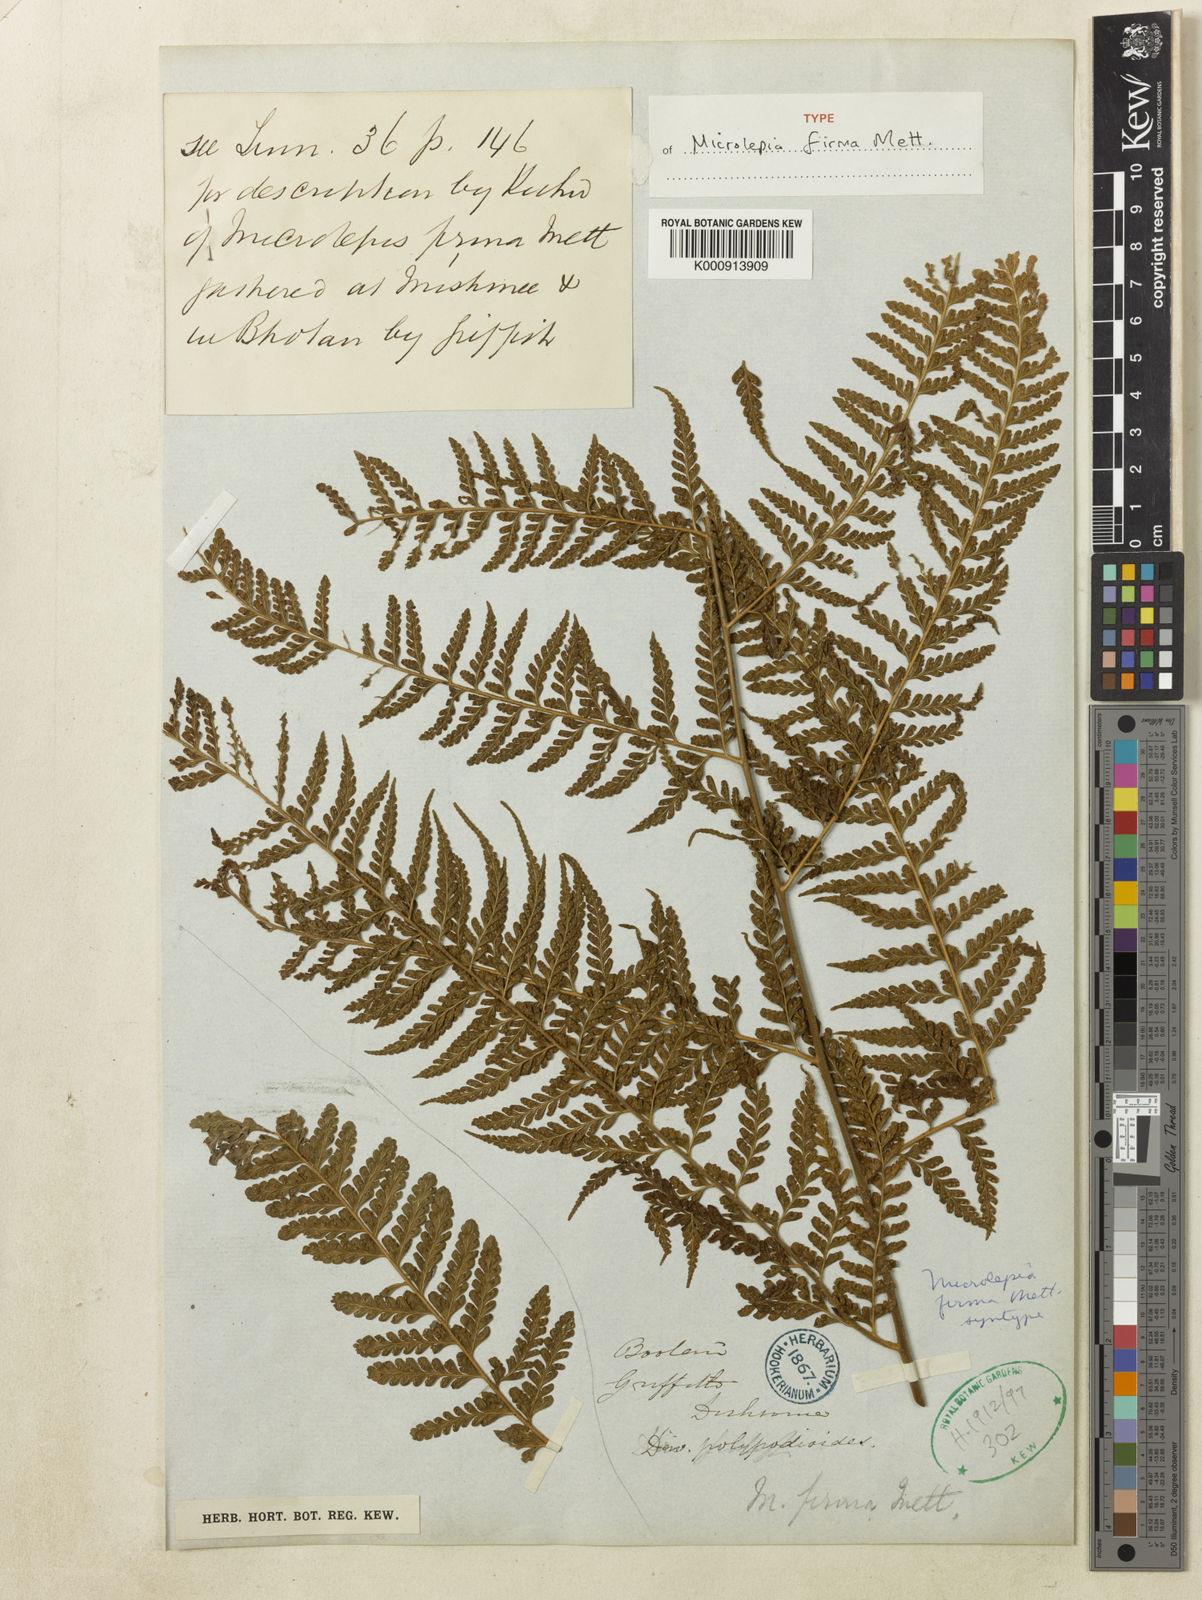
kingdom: Plantae
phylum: Tracheophyta
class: Polypodiopsida
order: Polypodiales
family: Dennstaedtiaceae
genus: Microlepia
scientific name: Microlepia firma
